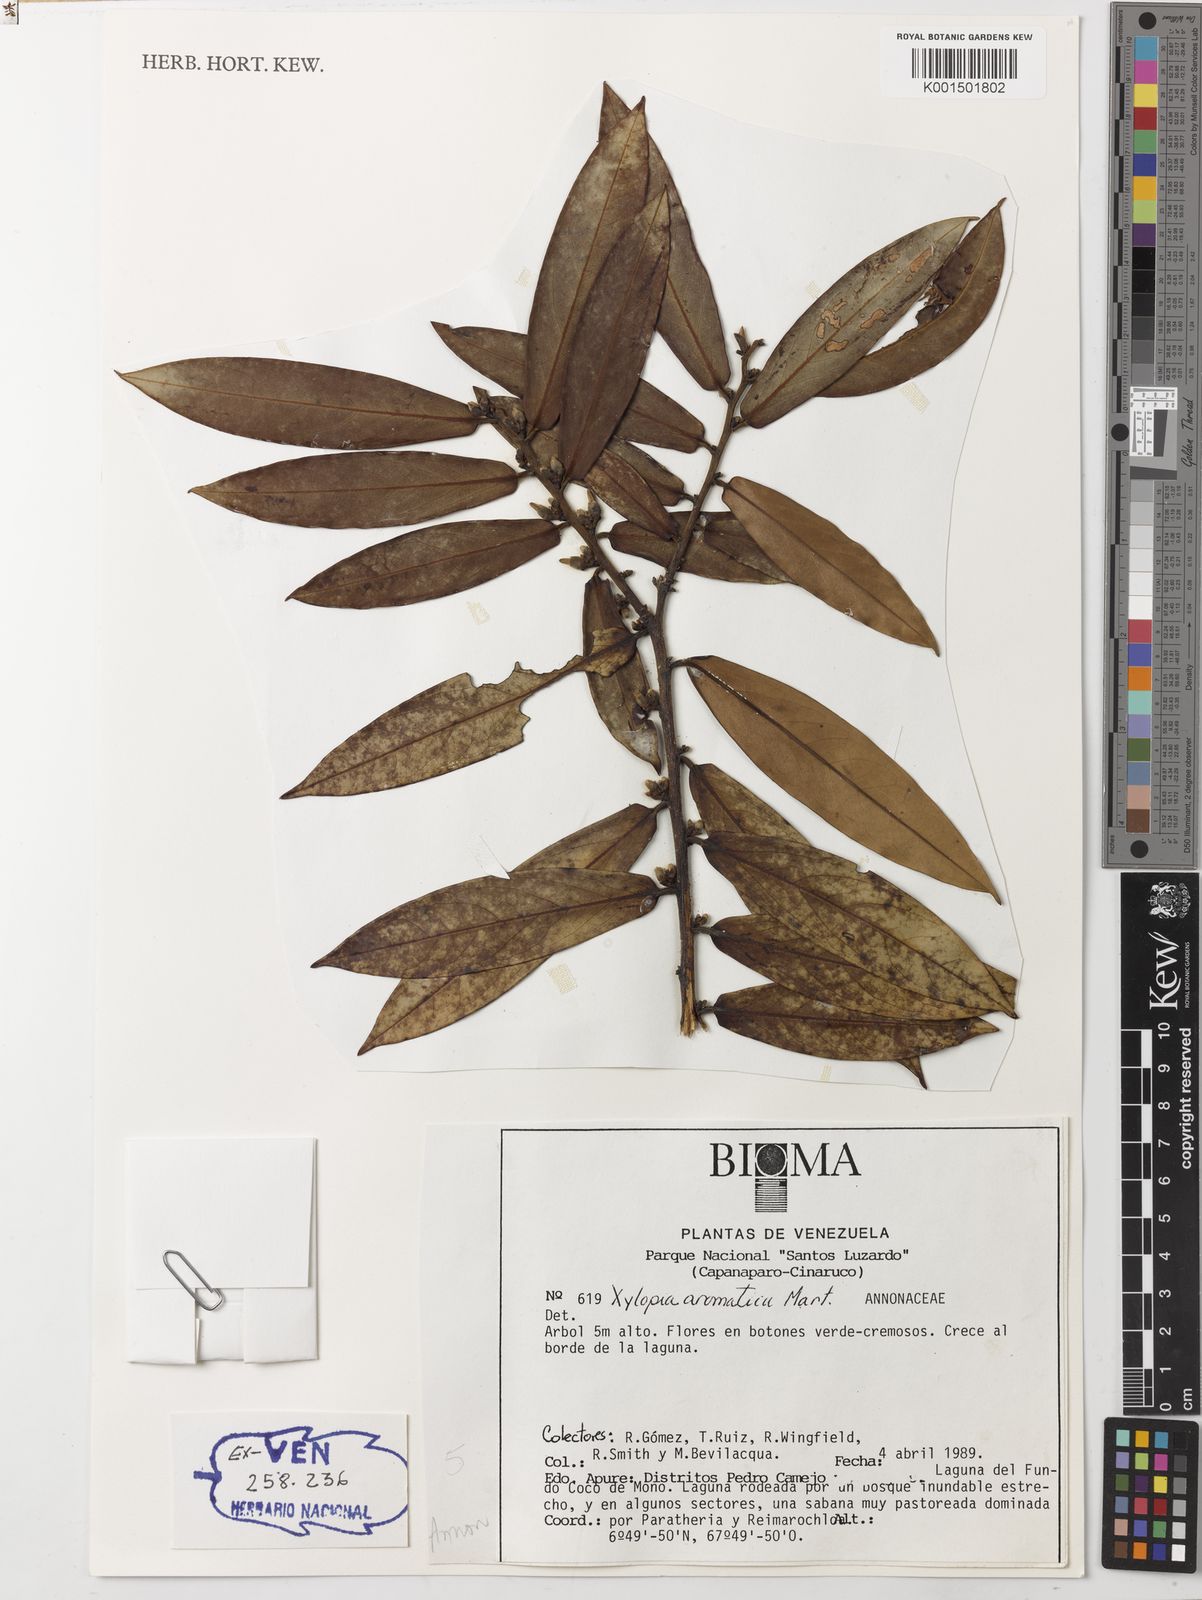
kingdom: Plantae
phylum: Tracheophyta
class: Magnoliopsida
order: Magnoliales
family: Annonaceae
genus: Xylopia
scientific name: Xylopia aromatica
